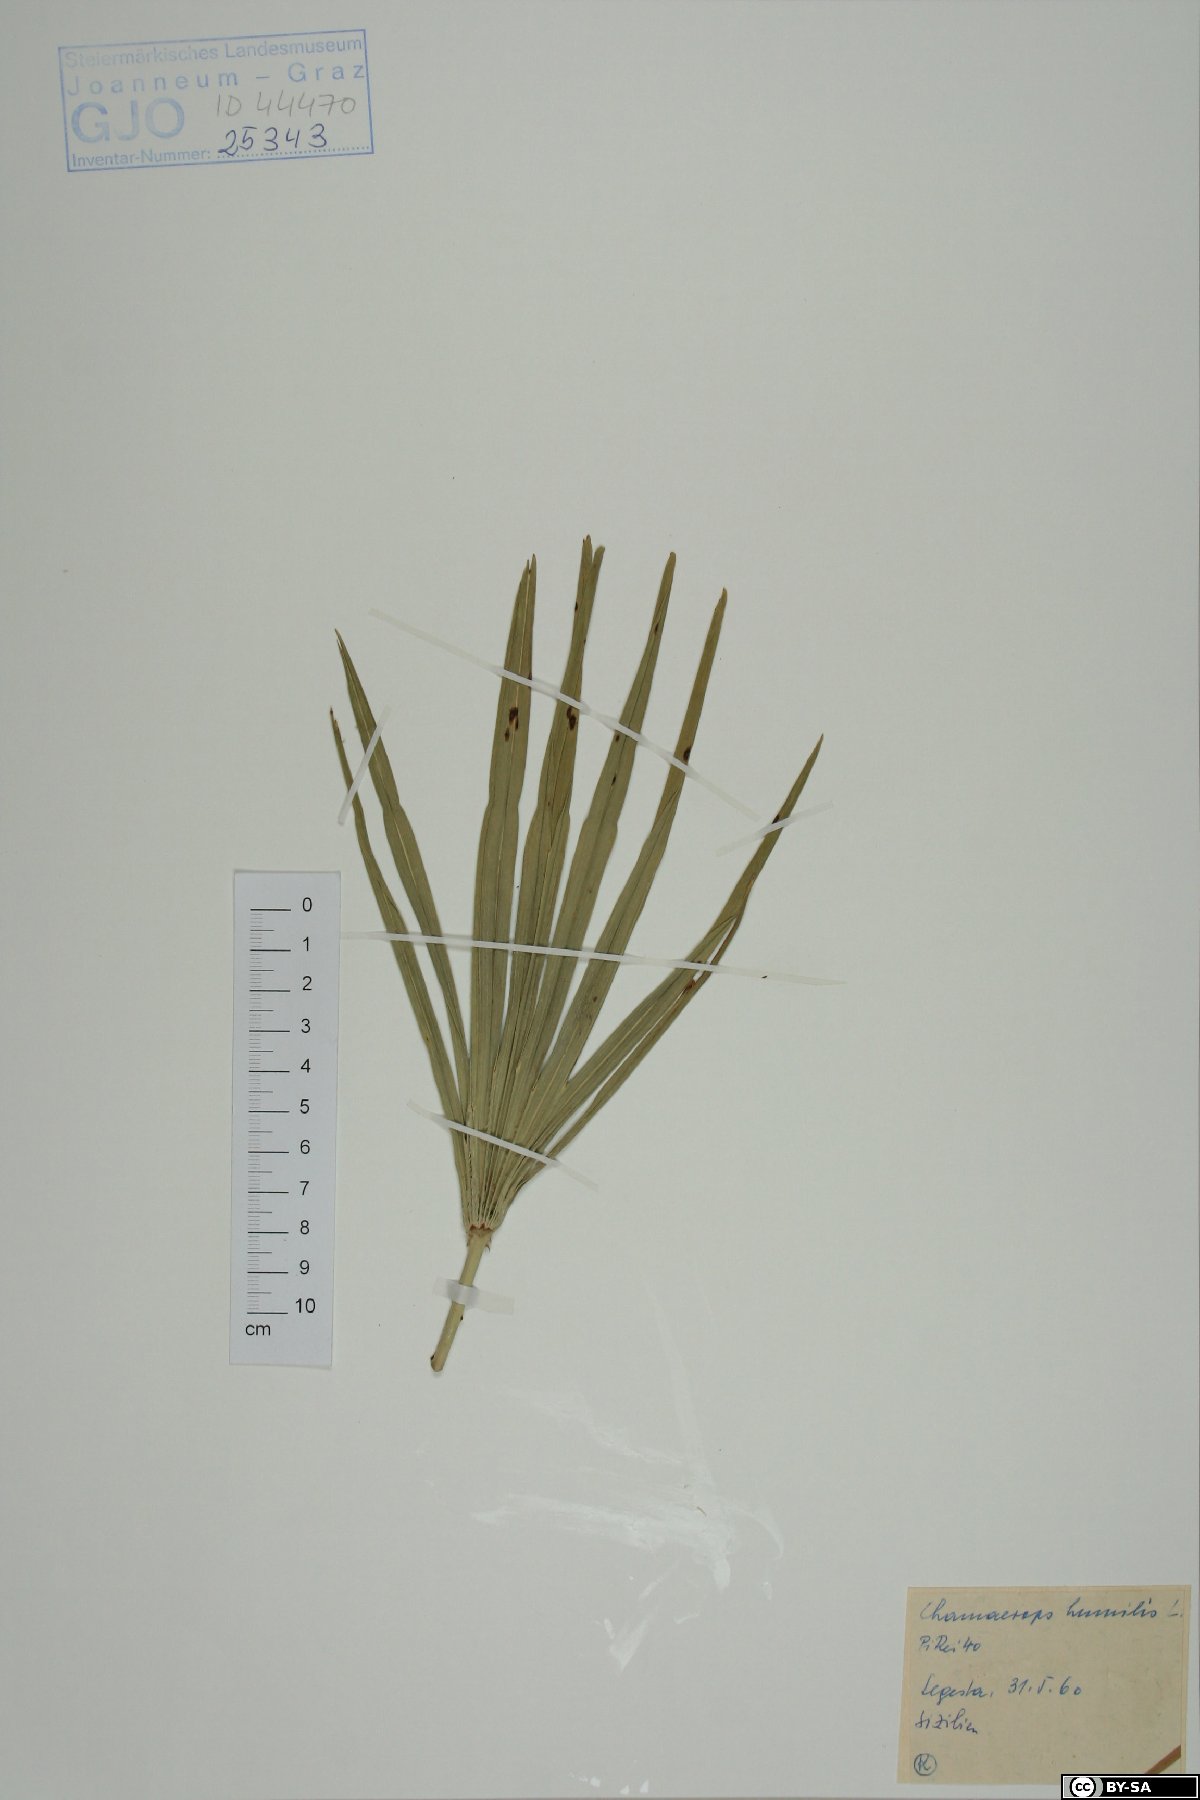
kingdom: Plantae
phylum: Tracheophyta
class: Liliopsida
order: Arecales
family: Arecaceae
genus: Chamaerops
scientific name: Chamaerops humilis
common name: Dwarf fan palm
